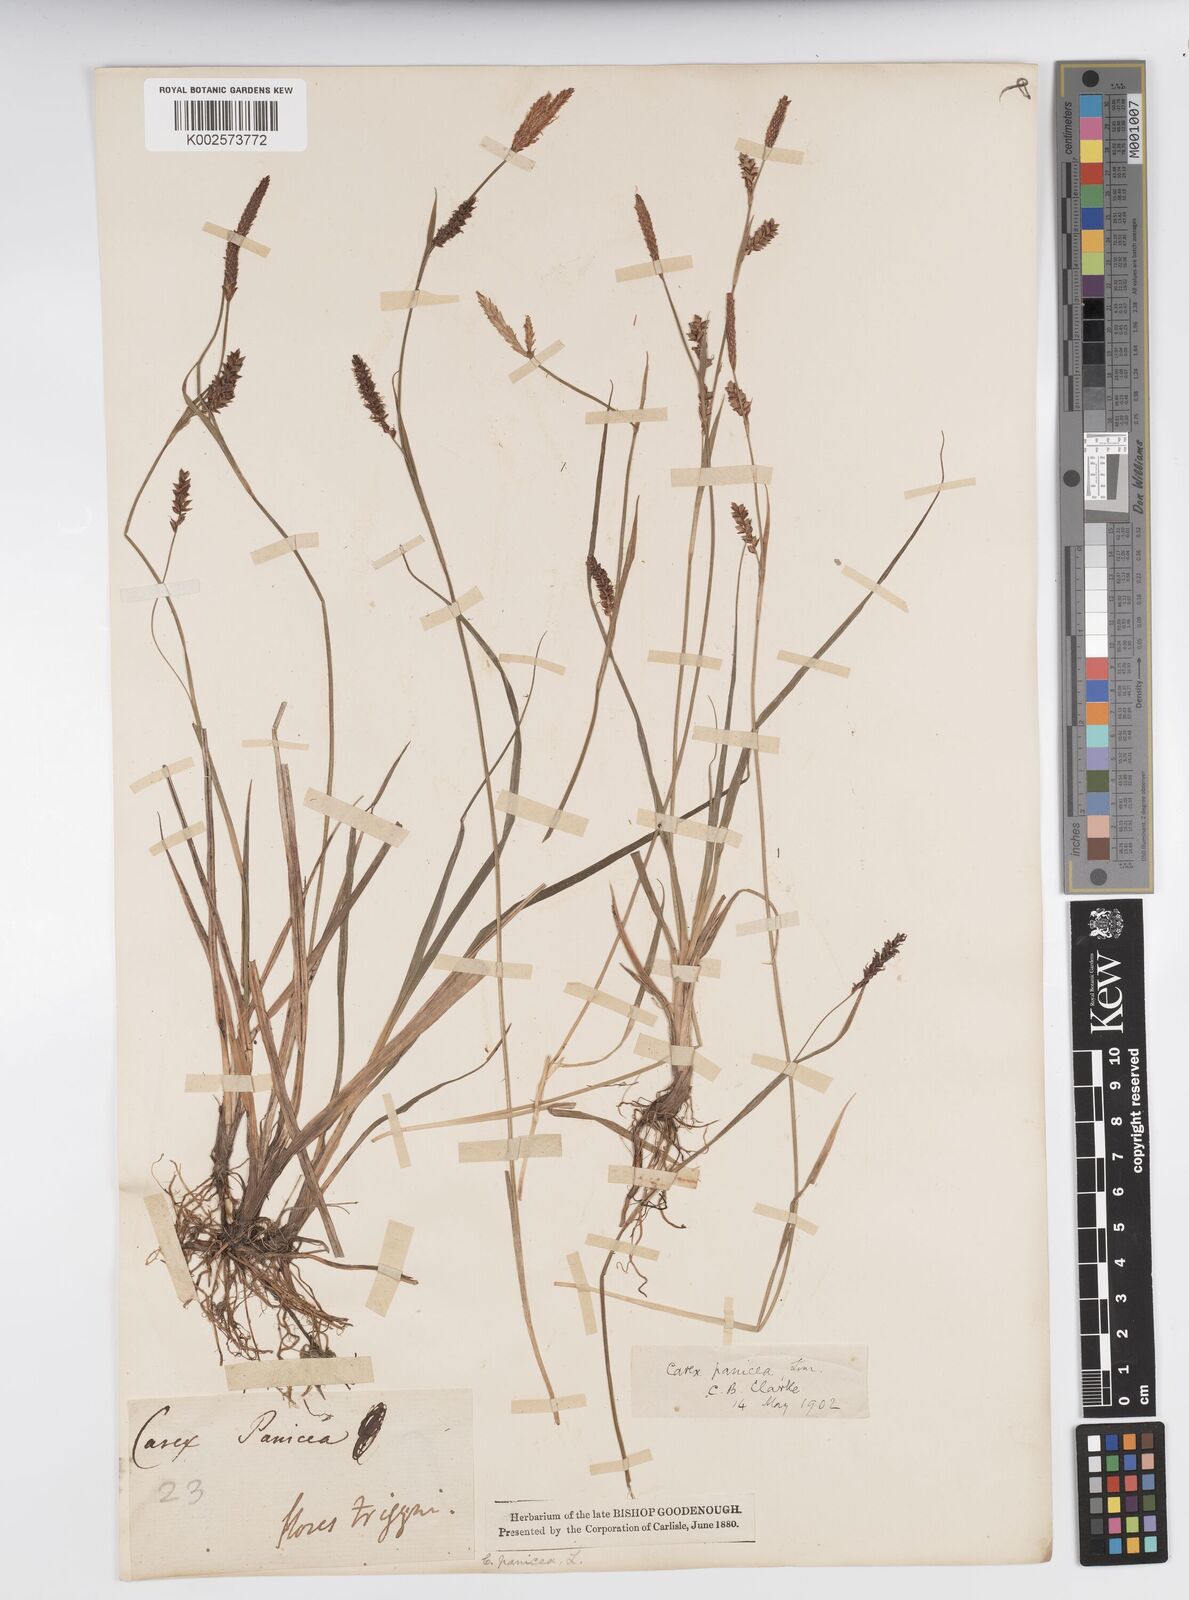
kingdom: Plantae
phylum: Tracheophyta
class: Liliopsida
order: Poales
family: Cyperaceae
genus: Carex
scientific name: Carex panicea
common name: Carnation sedge
